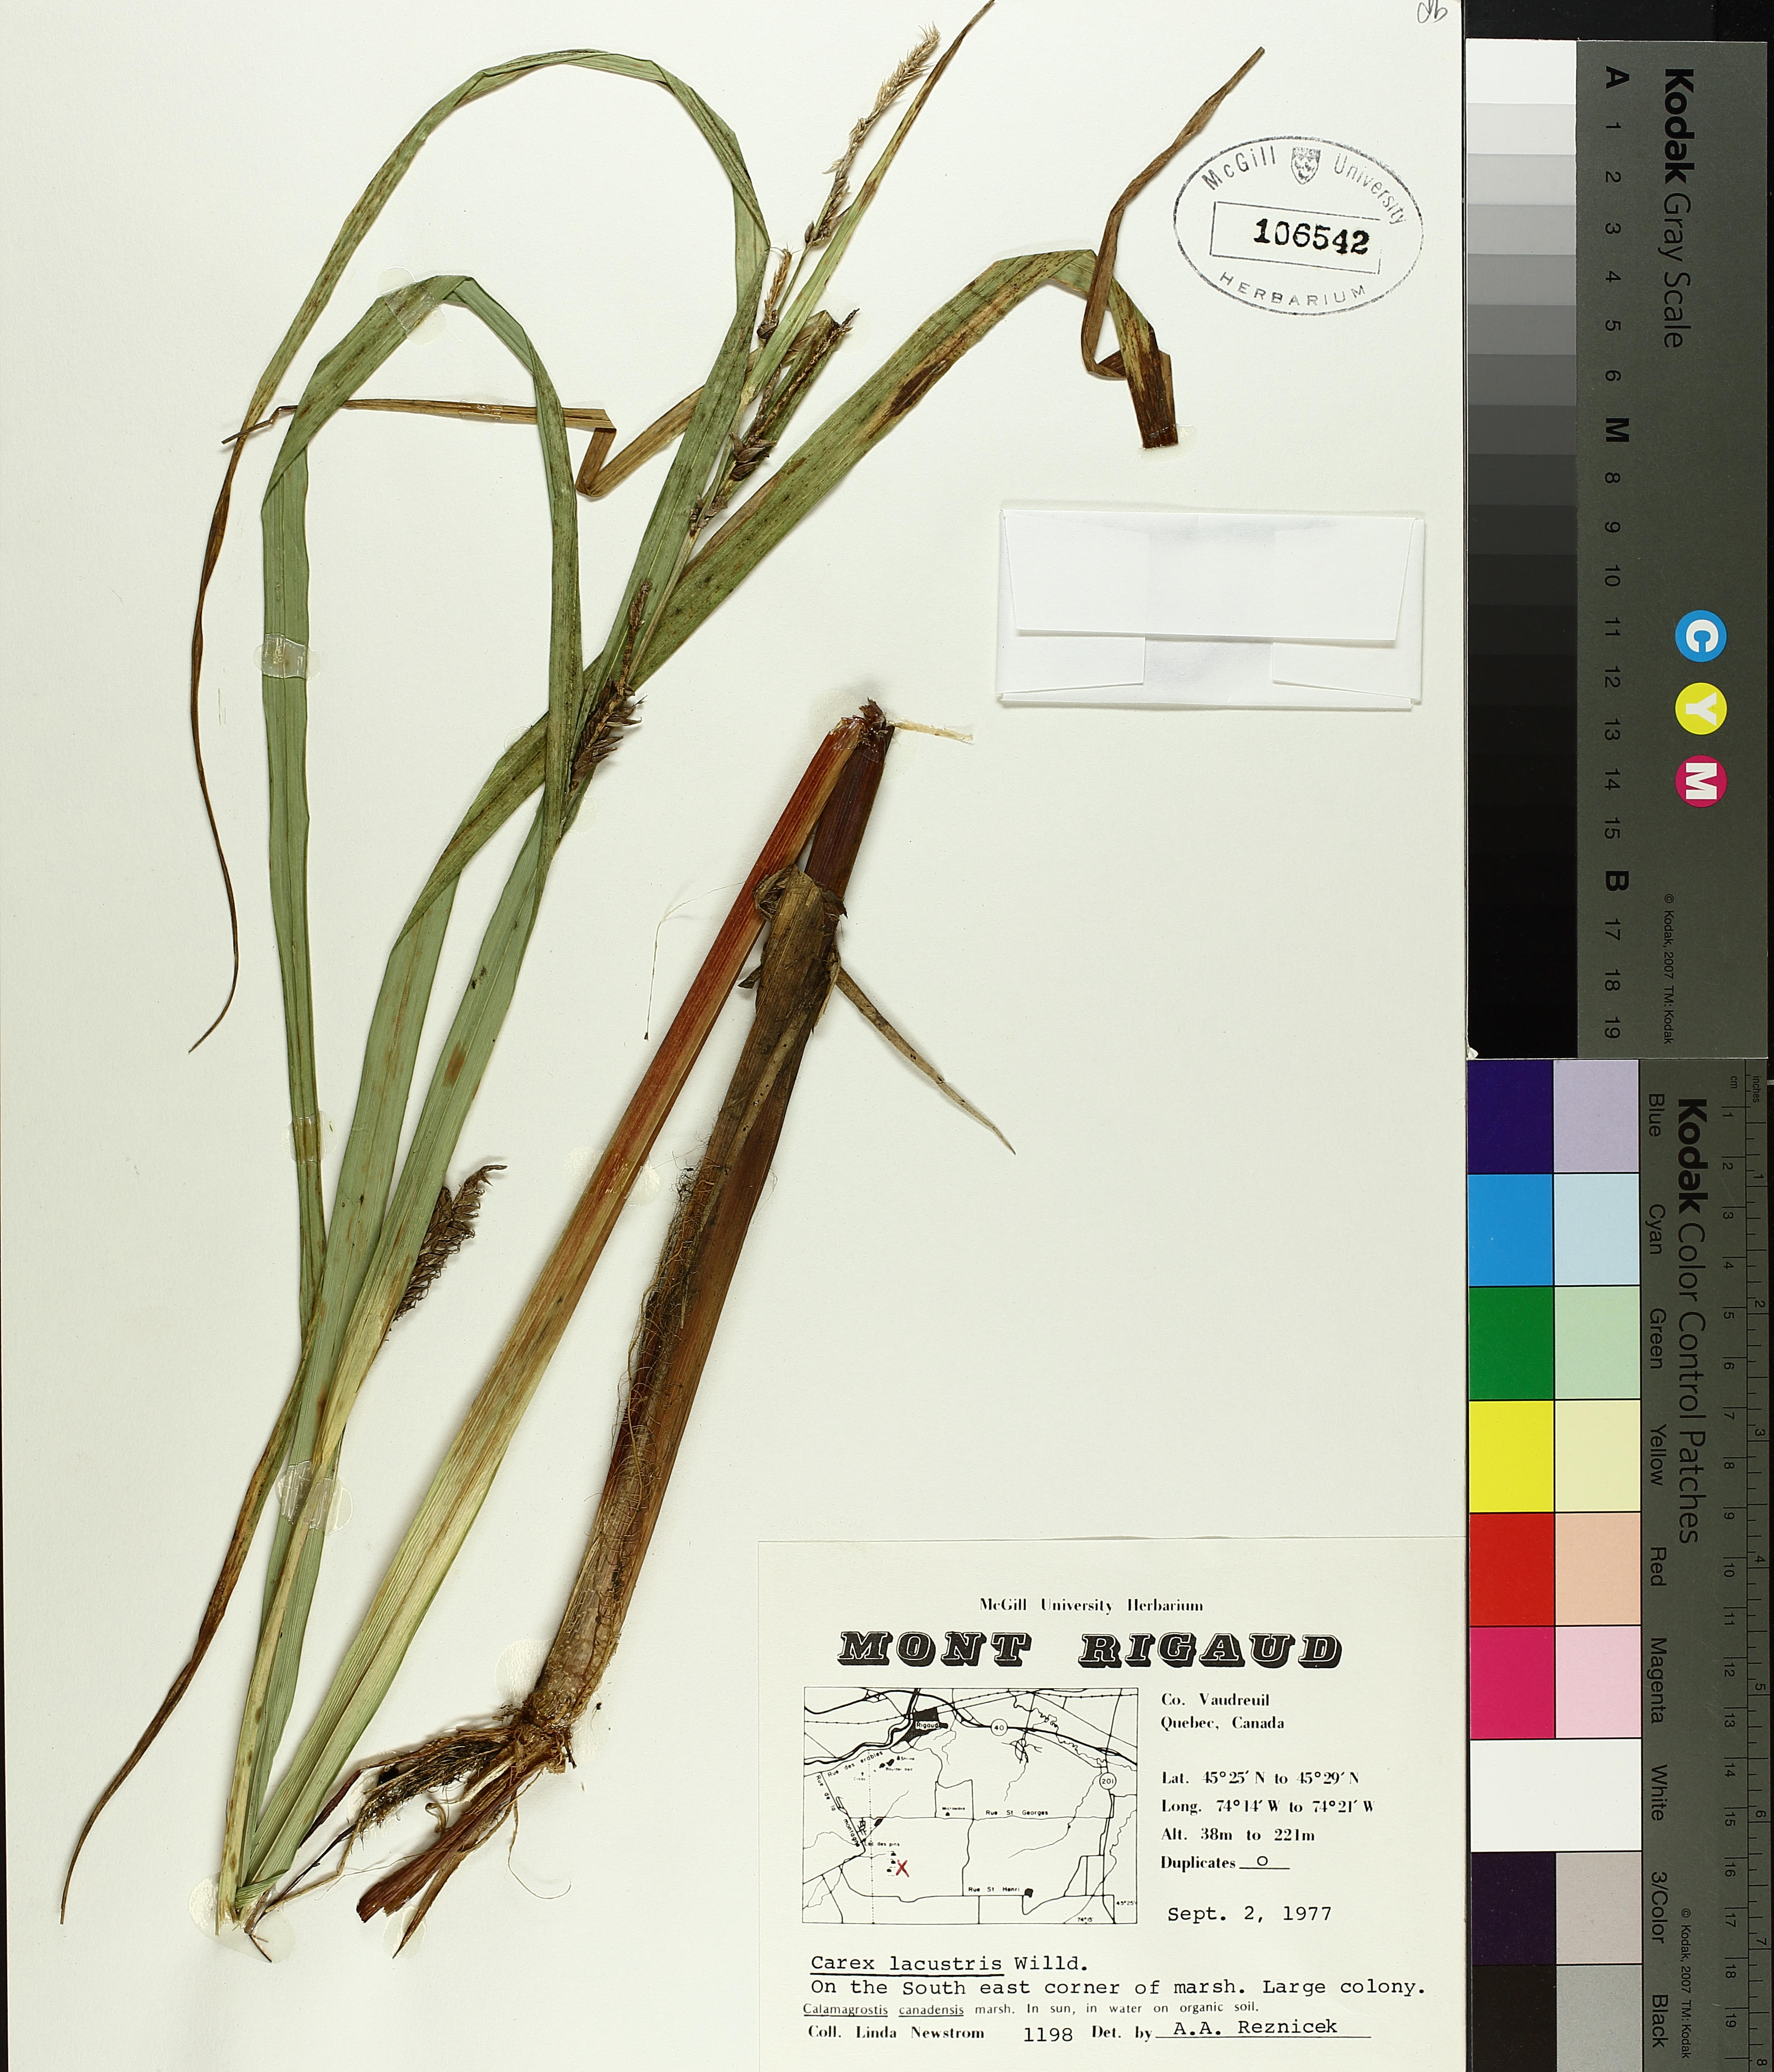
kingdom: Plantae
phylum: Tracheophyta
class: Liliopsida
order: Poales
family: Cyperaceae
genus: Carex
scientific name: Carex lacustris
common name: Common lake sedge
